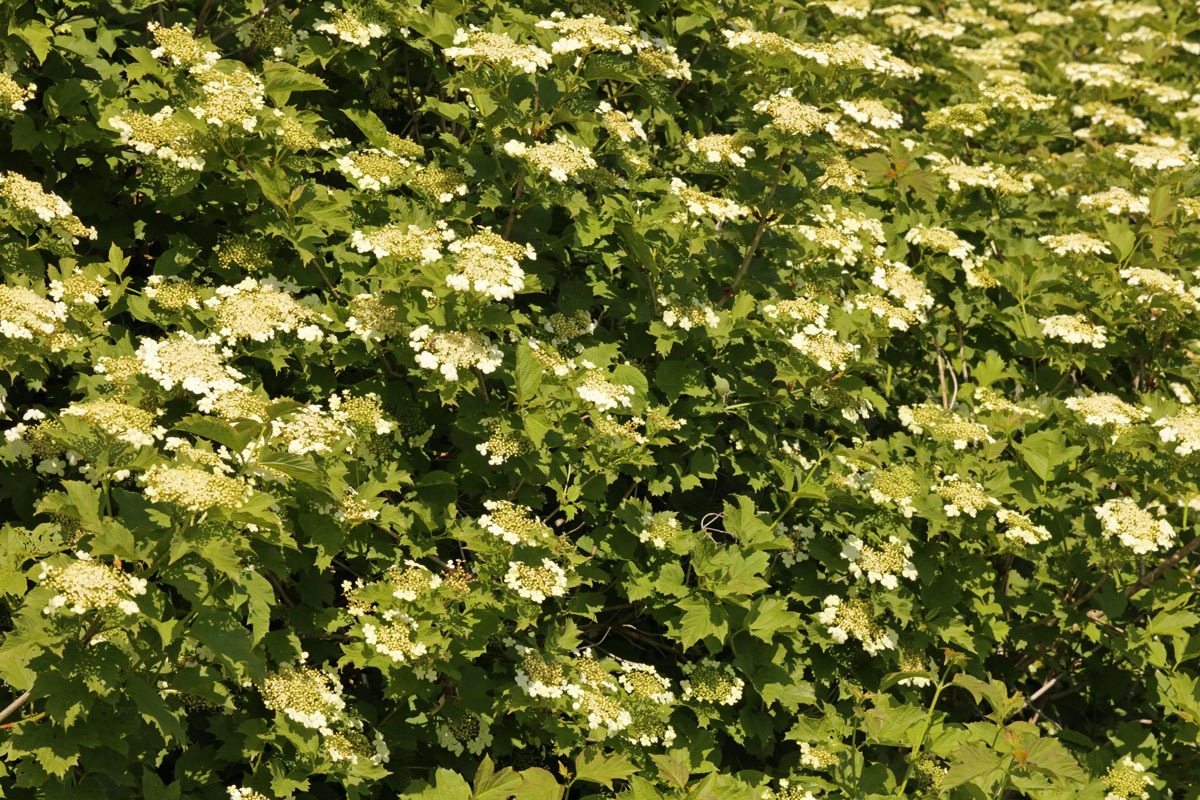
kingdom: Plantae
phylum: Tracheophyta
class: Magnoliopsida
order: Dipsacales
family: Viburnaceae
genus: Viburnum
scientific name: Viburnum opulus
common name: Kvalkved
